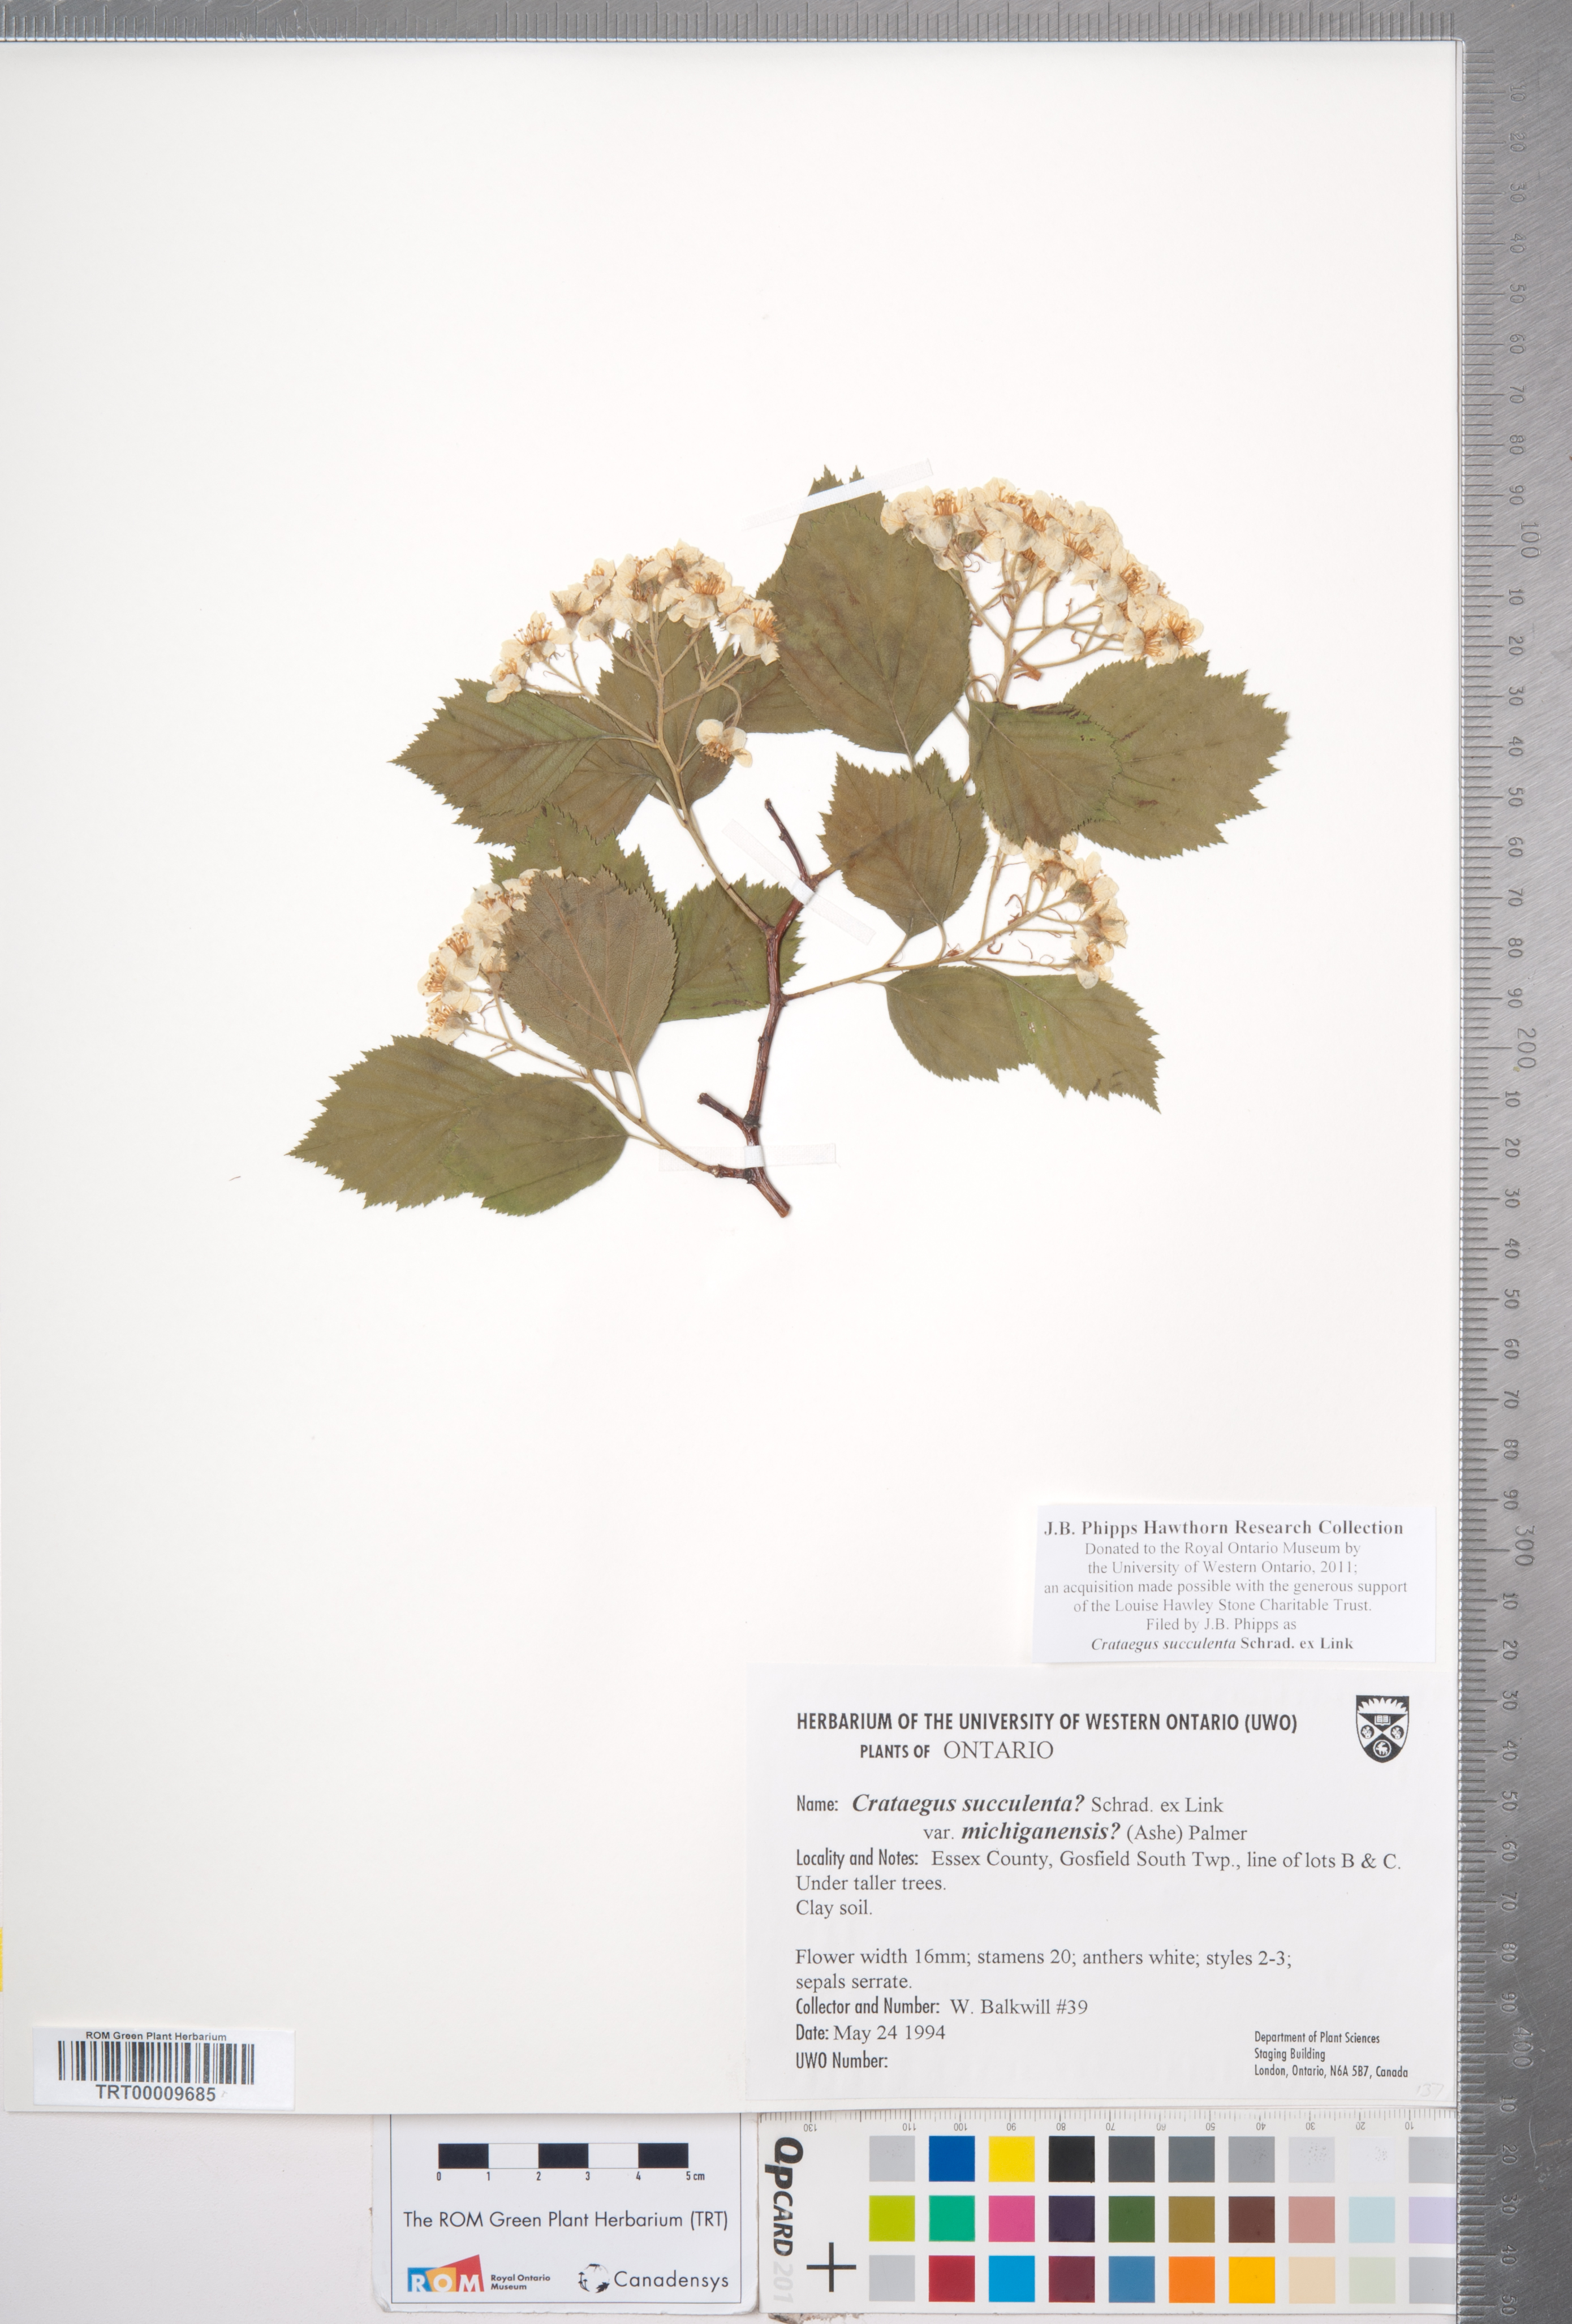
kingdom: Plantae
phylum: Tracheophyta
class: Magnoliopsida
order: Rosales
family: Rosaceae
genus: Crataegus
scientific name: Crataegus succulenta
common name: Fleshy hawthorn
